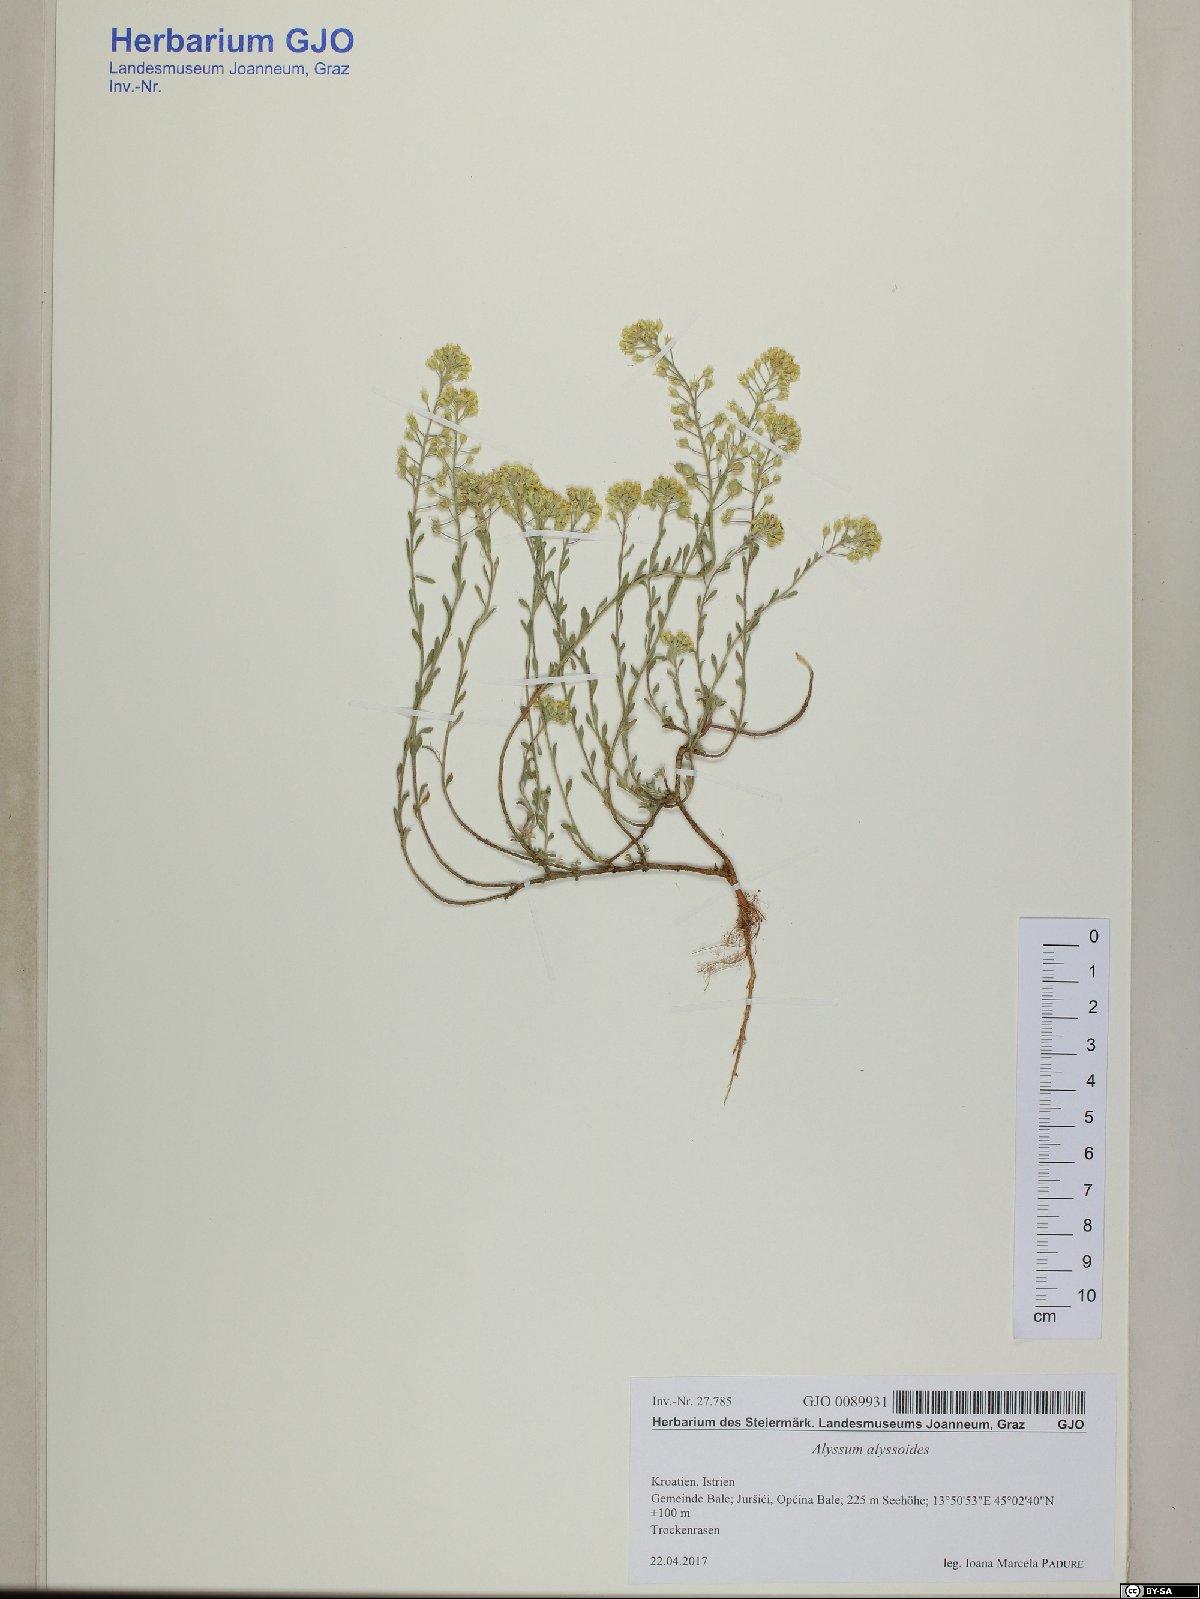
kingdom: Plantae
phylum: Tracheophyta
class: Magnoliopsida
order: Brassicales
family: Brassicaceae
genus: Alyssum
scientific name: Alyssum austrodalmaticum
